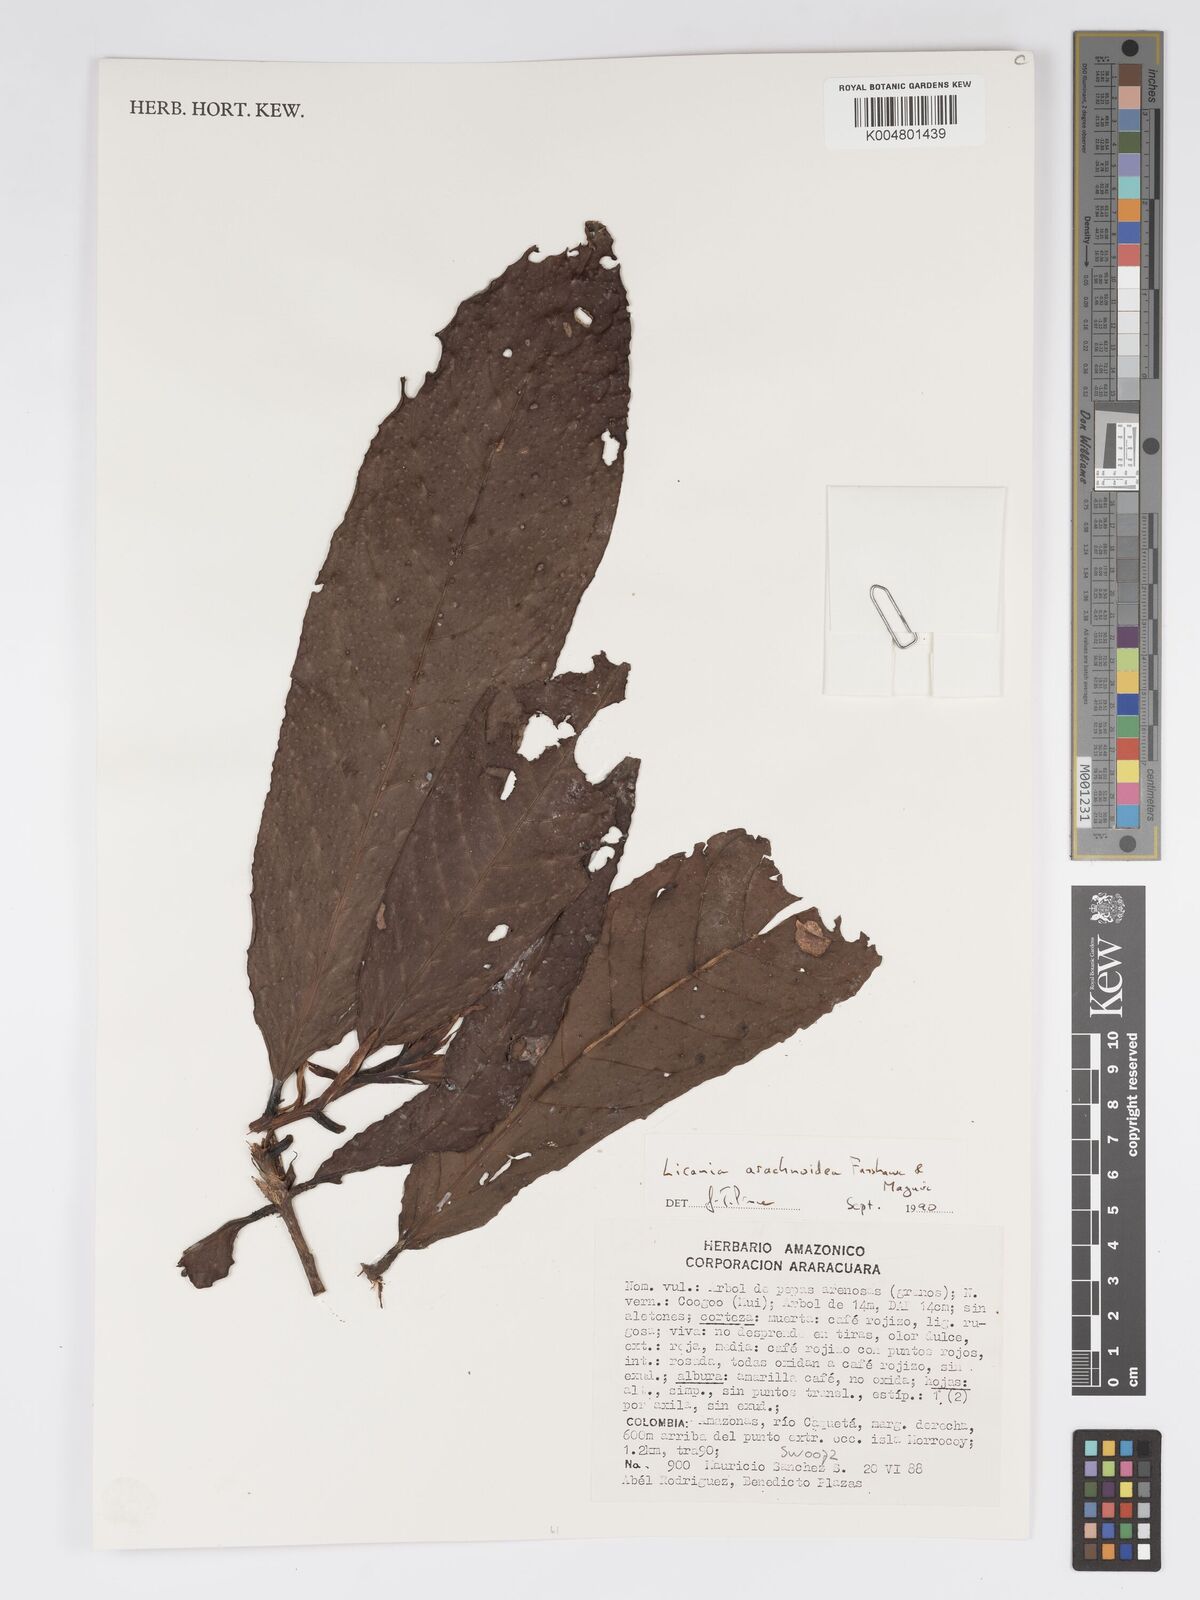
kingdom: Plantae
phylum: Tracheophyta
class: Magnoliopsida
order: Malpighiales
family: Chrysobalanaceae
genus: Hymenopus
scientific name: Hymenopus arachnoideus
